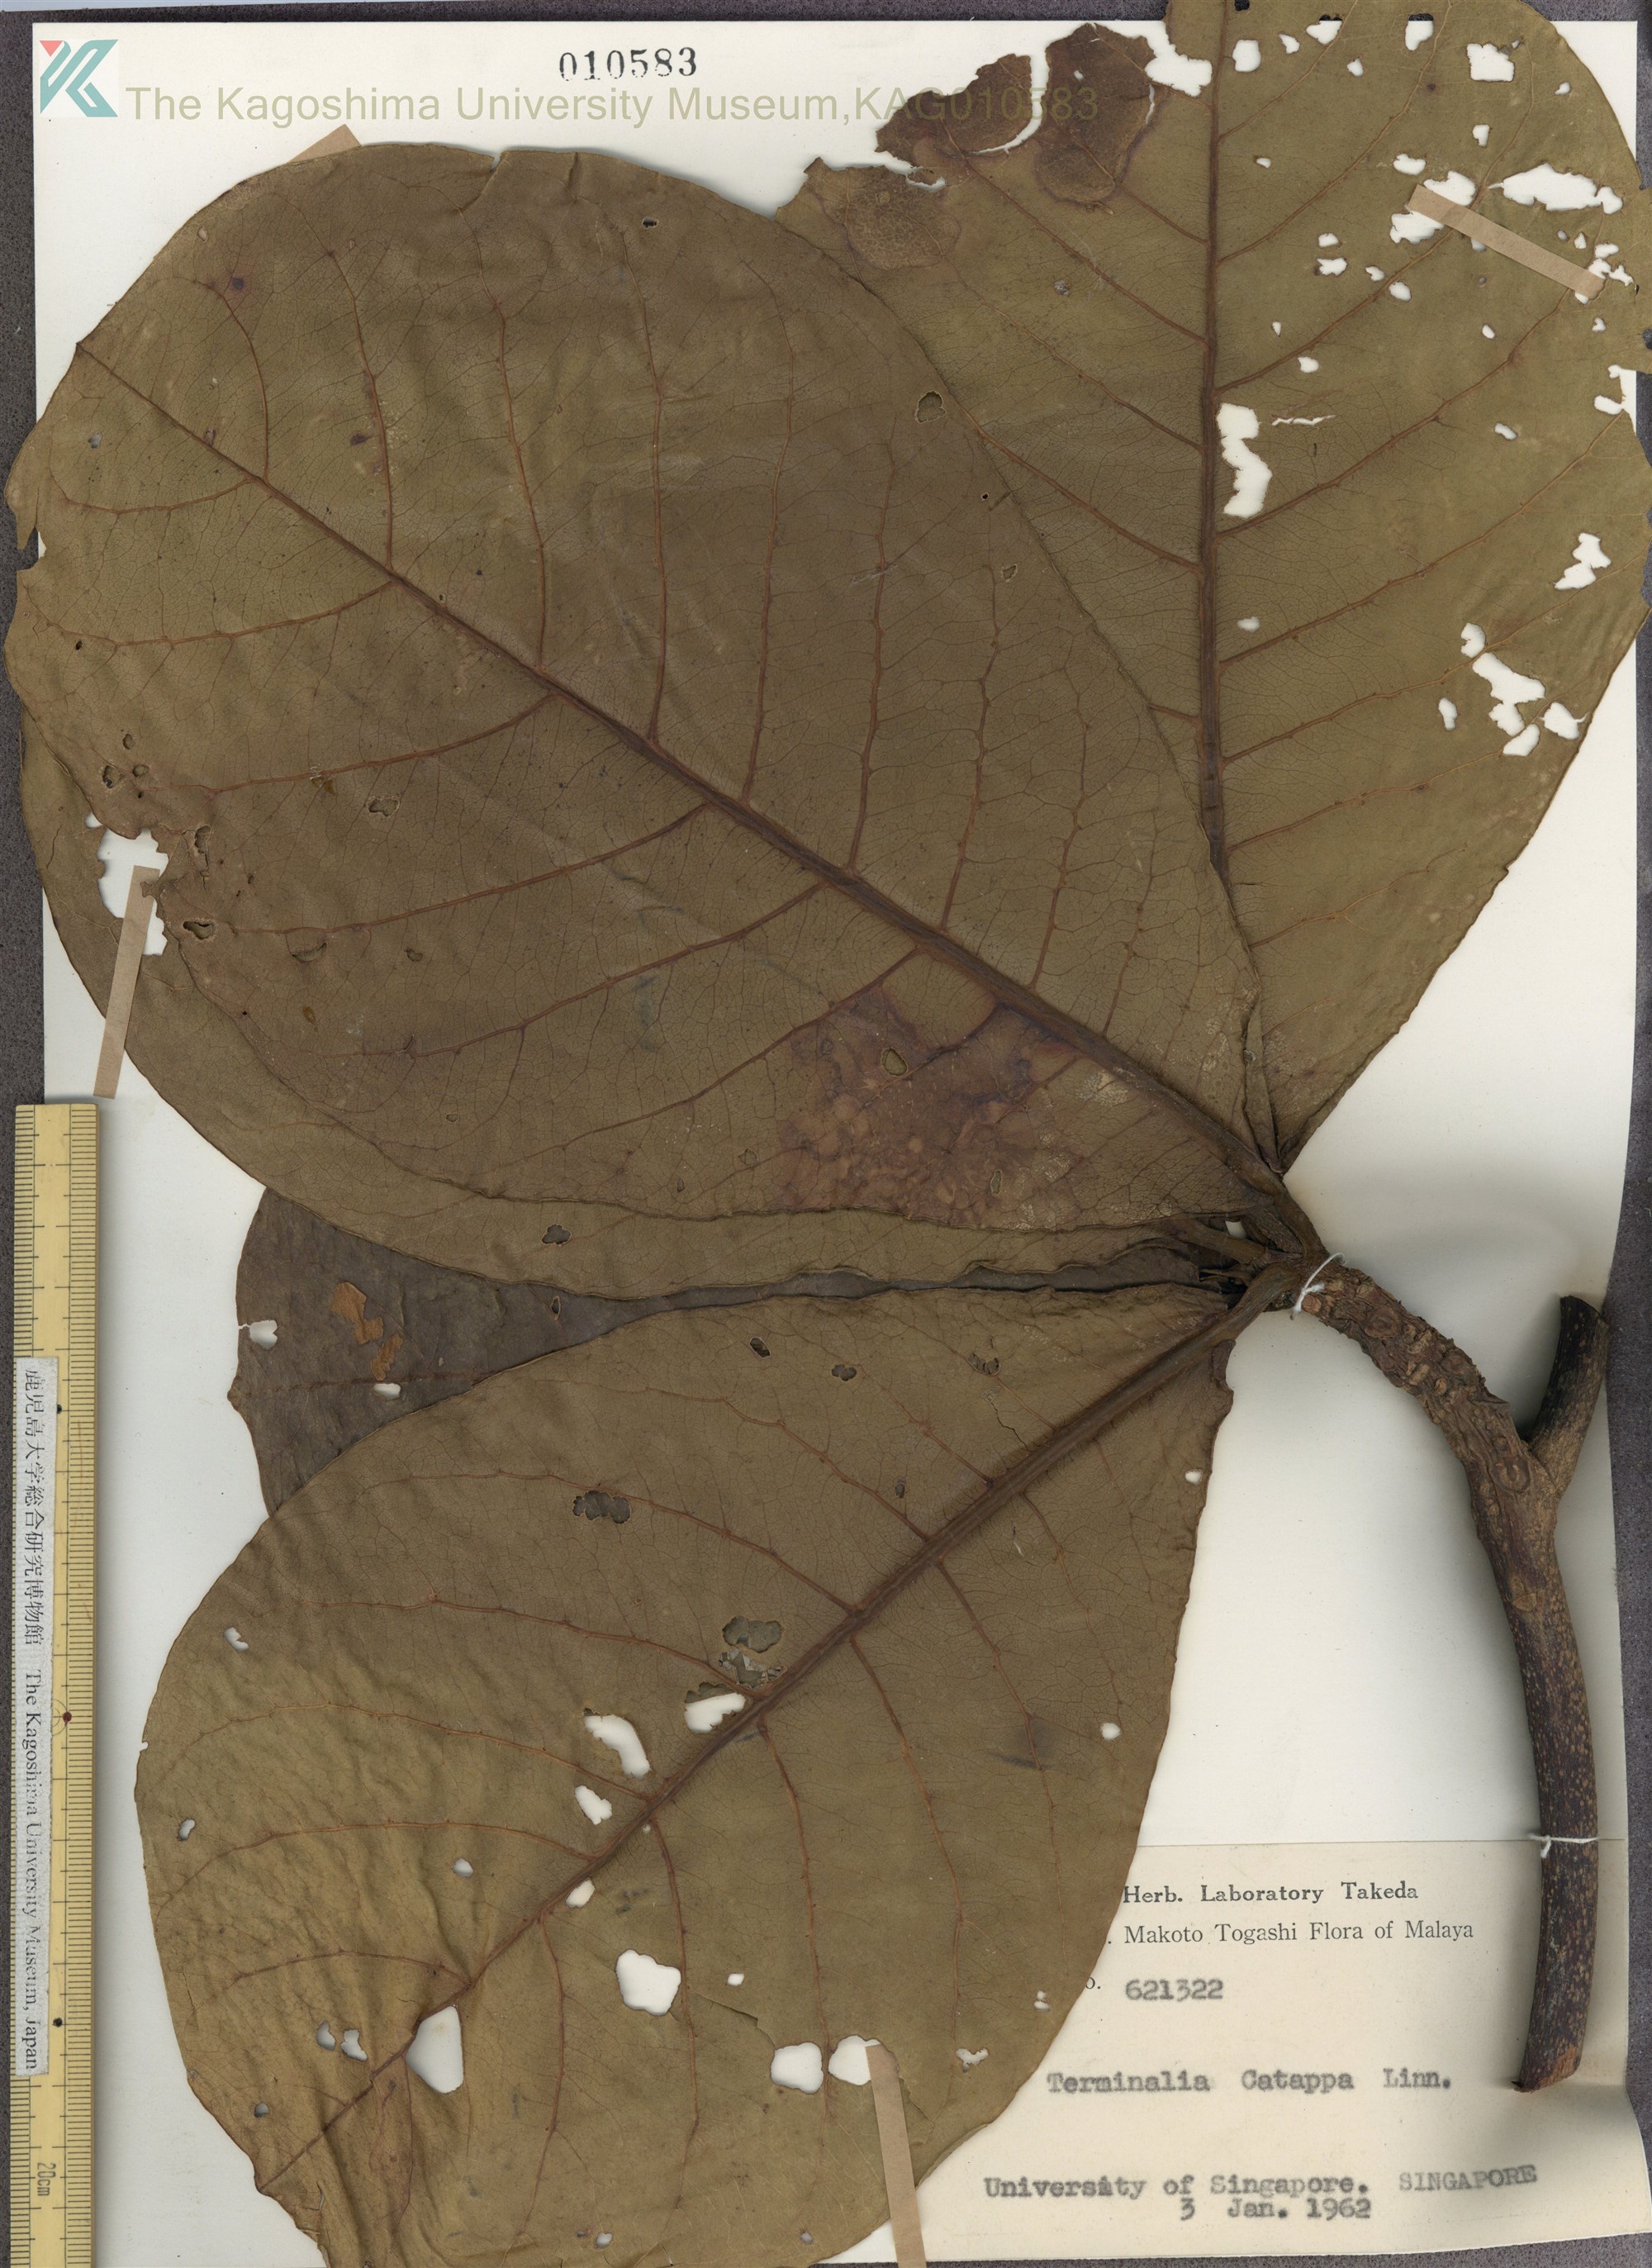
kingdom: Plantae
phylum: Tracheophyta
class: Magnoliopsida
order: Myrtales
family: Combretaceae
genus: Terminalia
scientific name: Terminalia catappa
